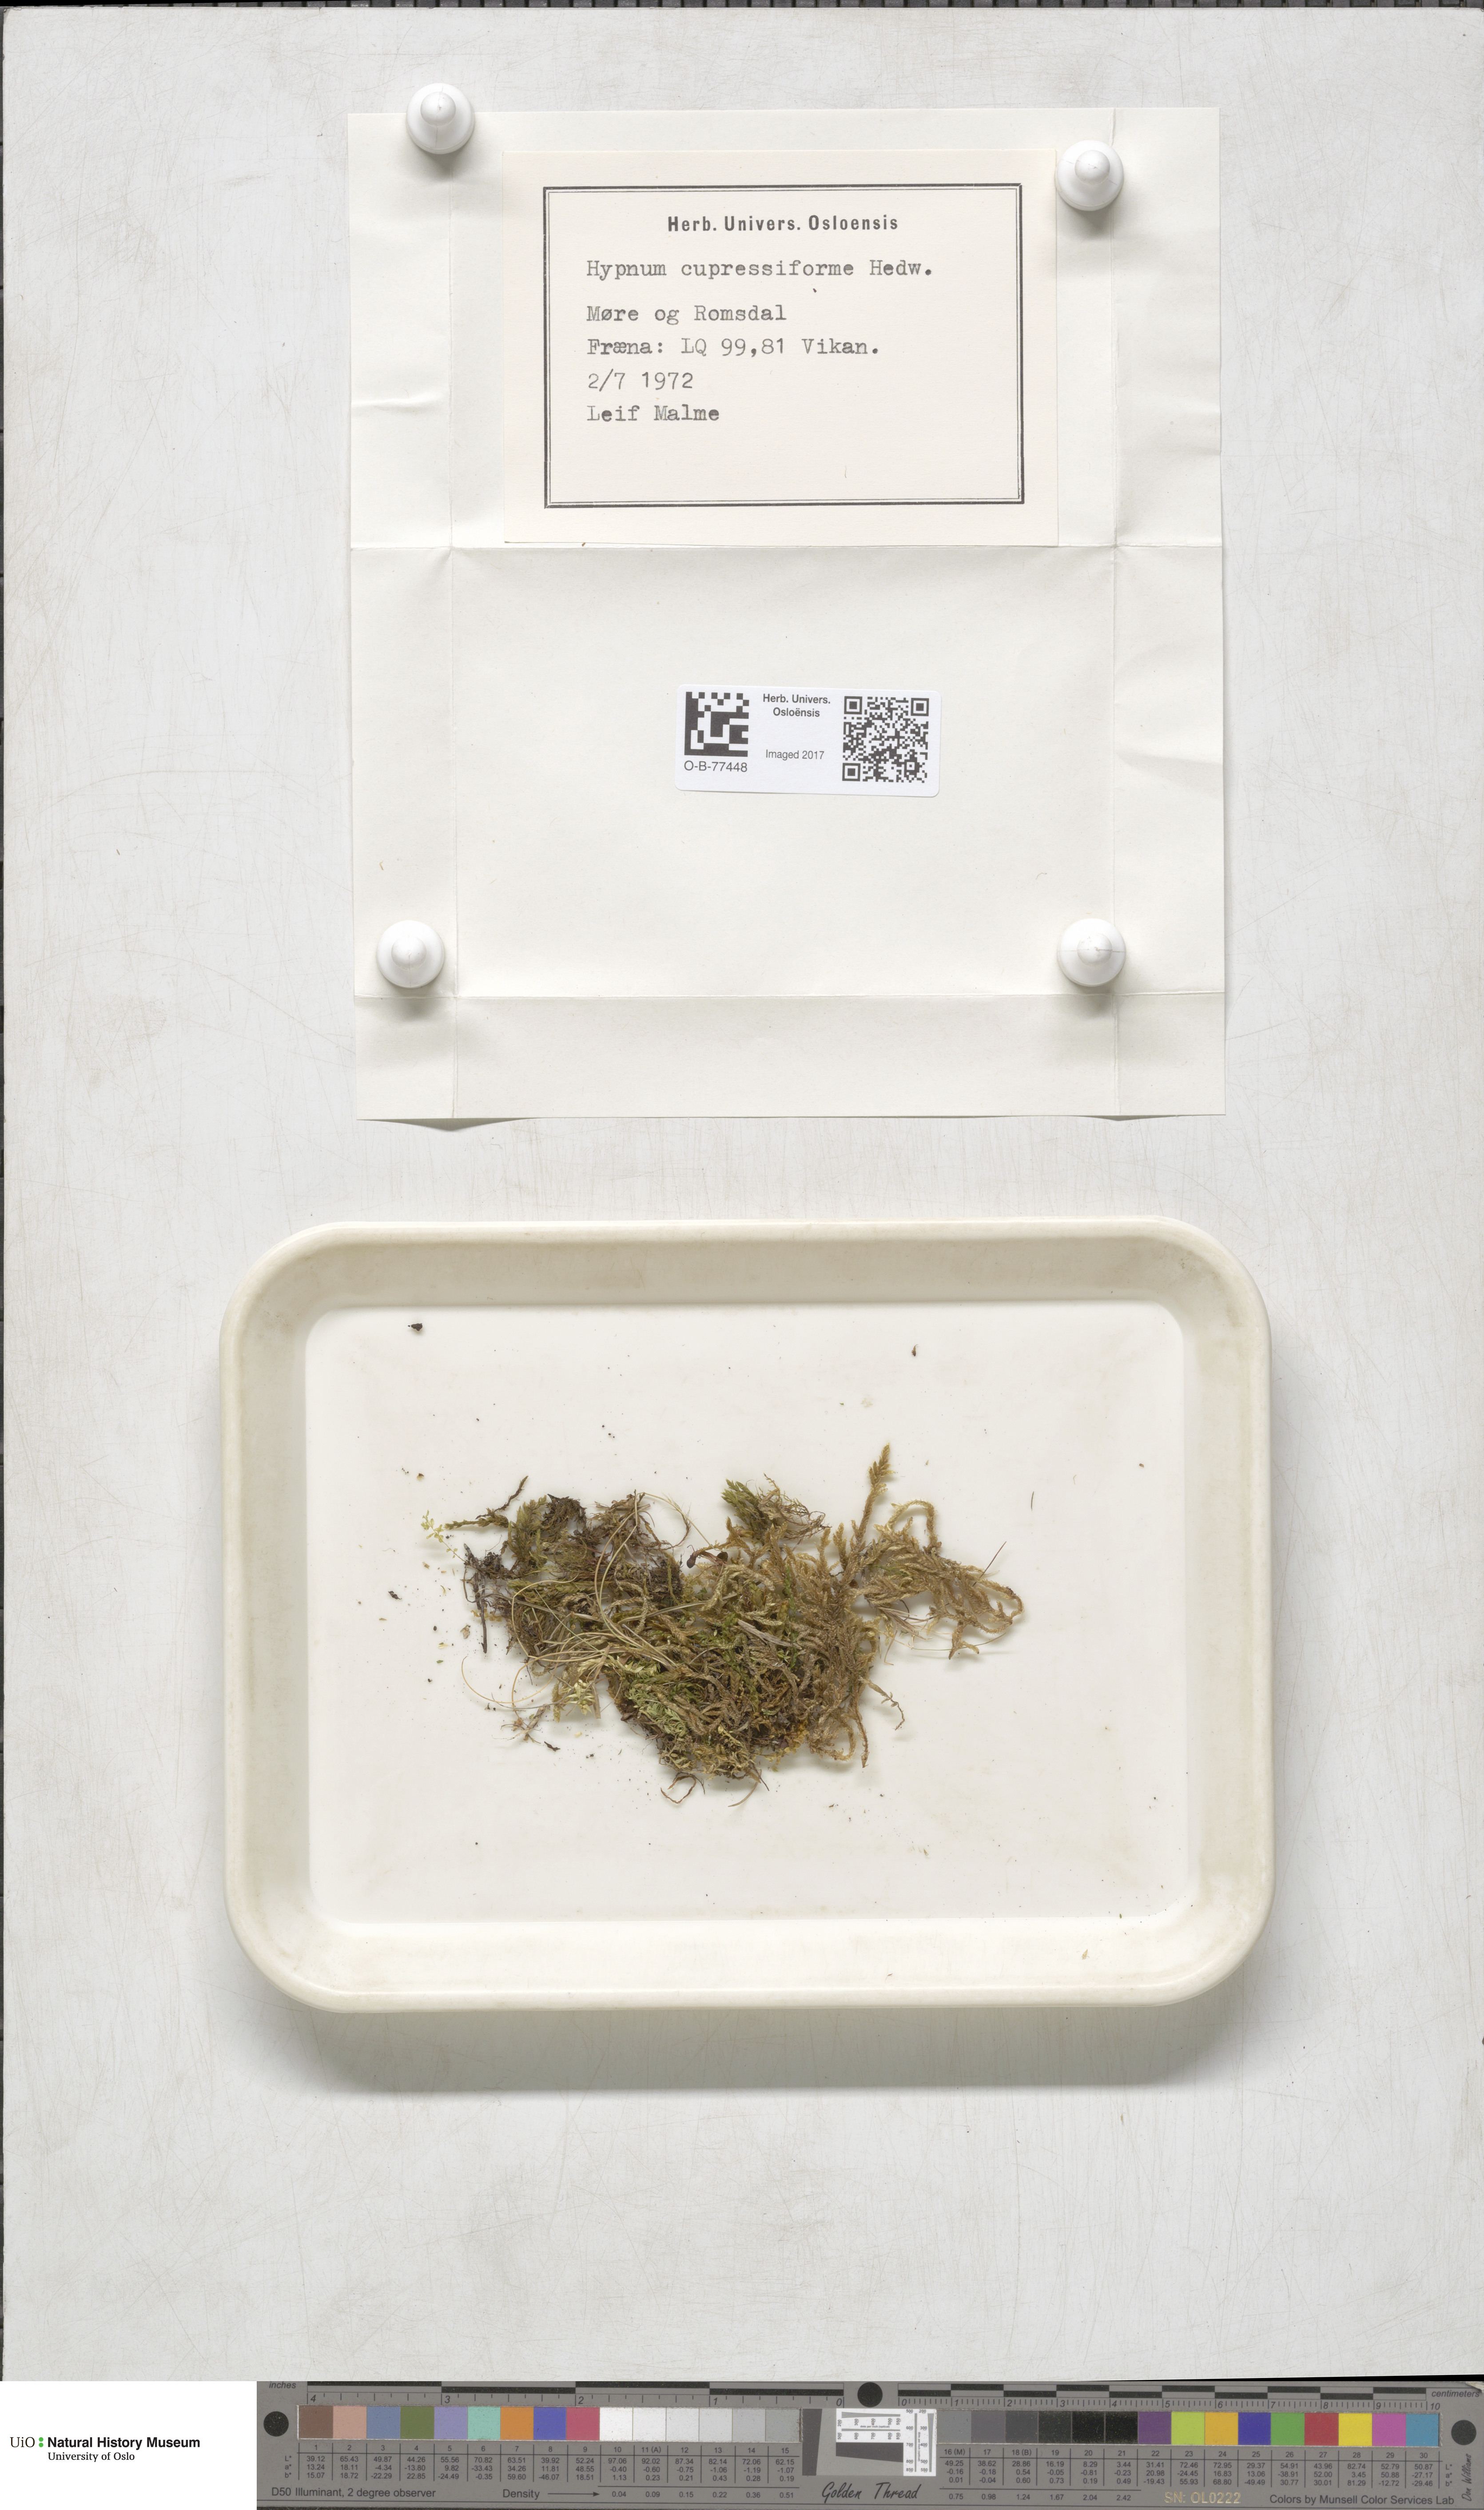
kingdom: Plantae
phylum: Bryophyta
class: Bryopsida
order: Hypnales
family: Hypnaceae
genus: Hypnum
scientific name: Hypnum cupressiforme
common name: Cypress-leaved plait-moss
